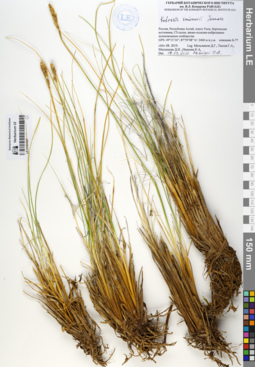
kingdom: Plantae
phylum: Tracheophyta
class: Liliopsida
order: Poales
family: Cyperaceae
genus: Carex
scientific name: Carex borealipolaris
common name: Siberian bog sedge
